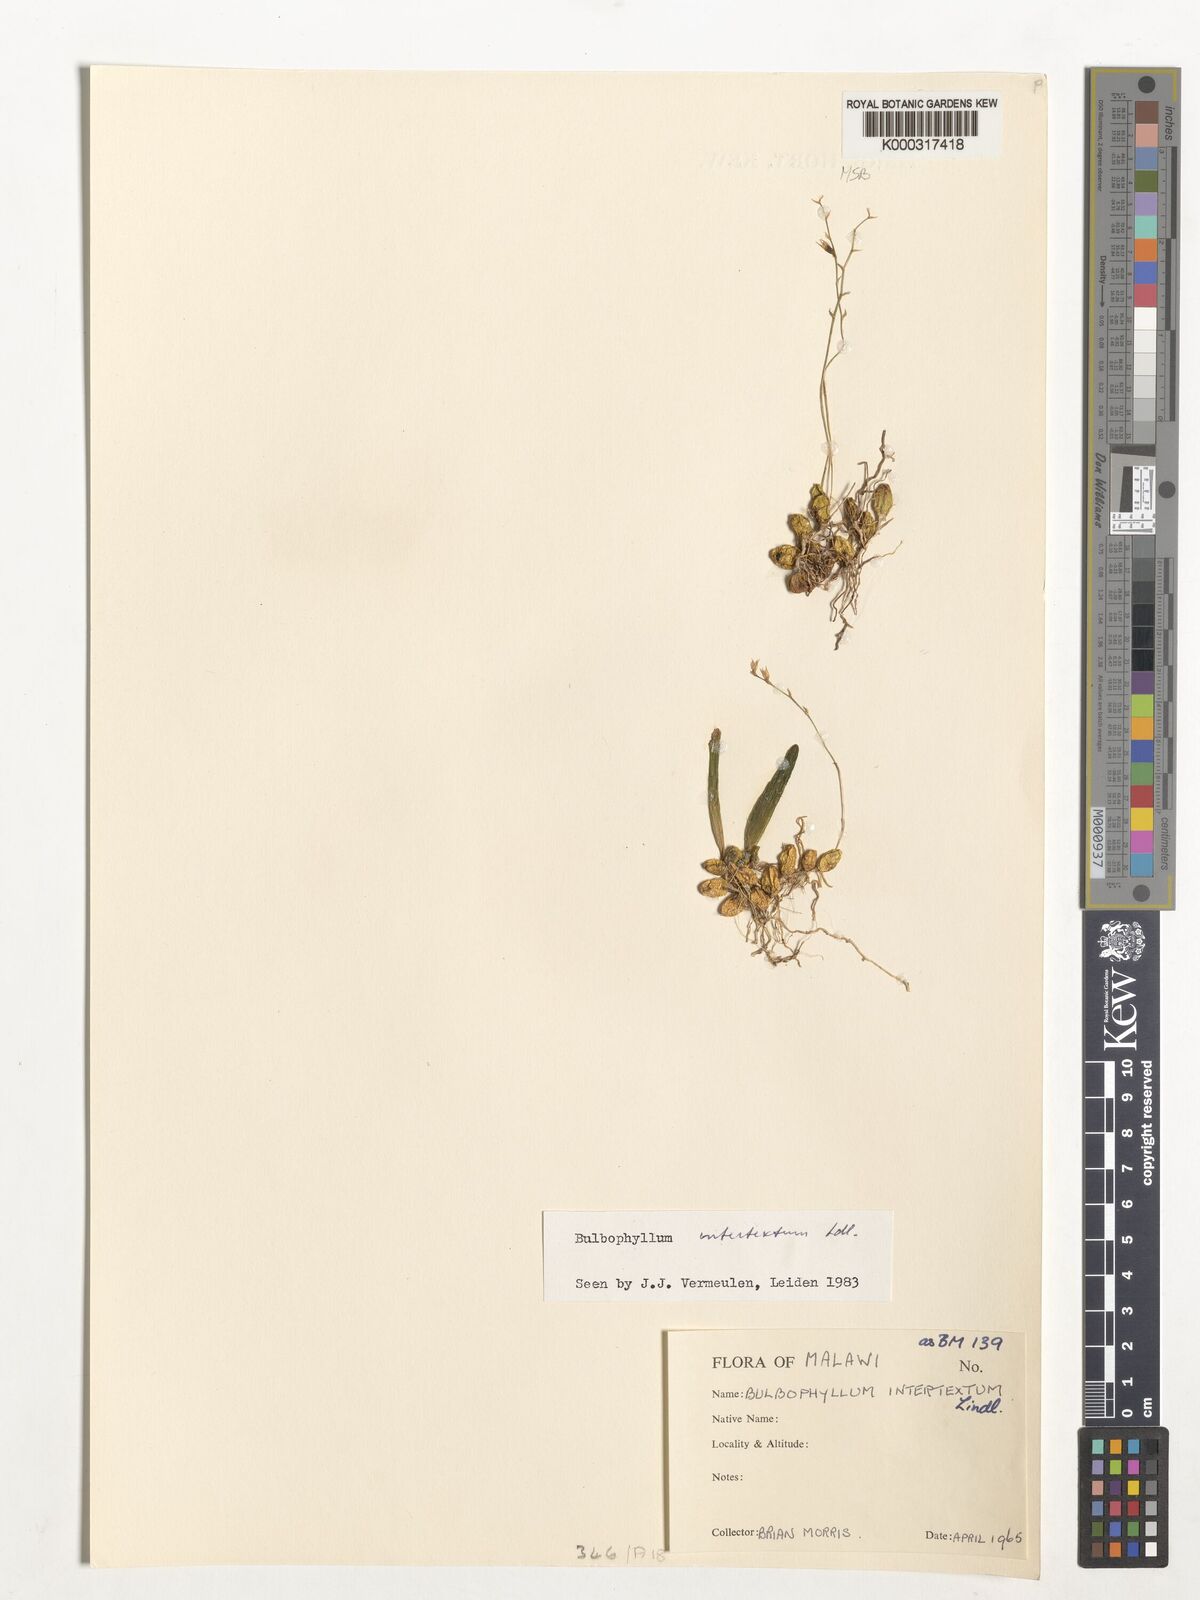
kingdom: Plantae
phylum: Tracheophyta
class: Liliopsida
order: Asparagales
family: Orchidaceae
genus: Bulbophyllum
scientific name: Bulbophyllum intertextum
